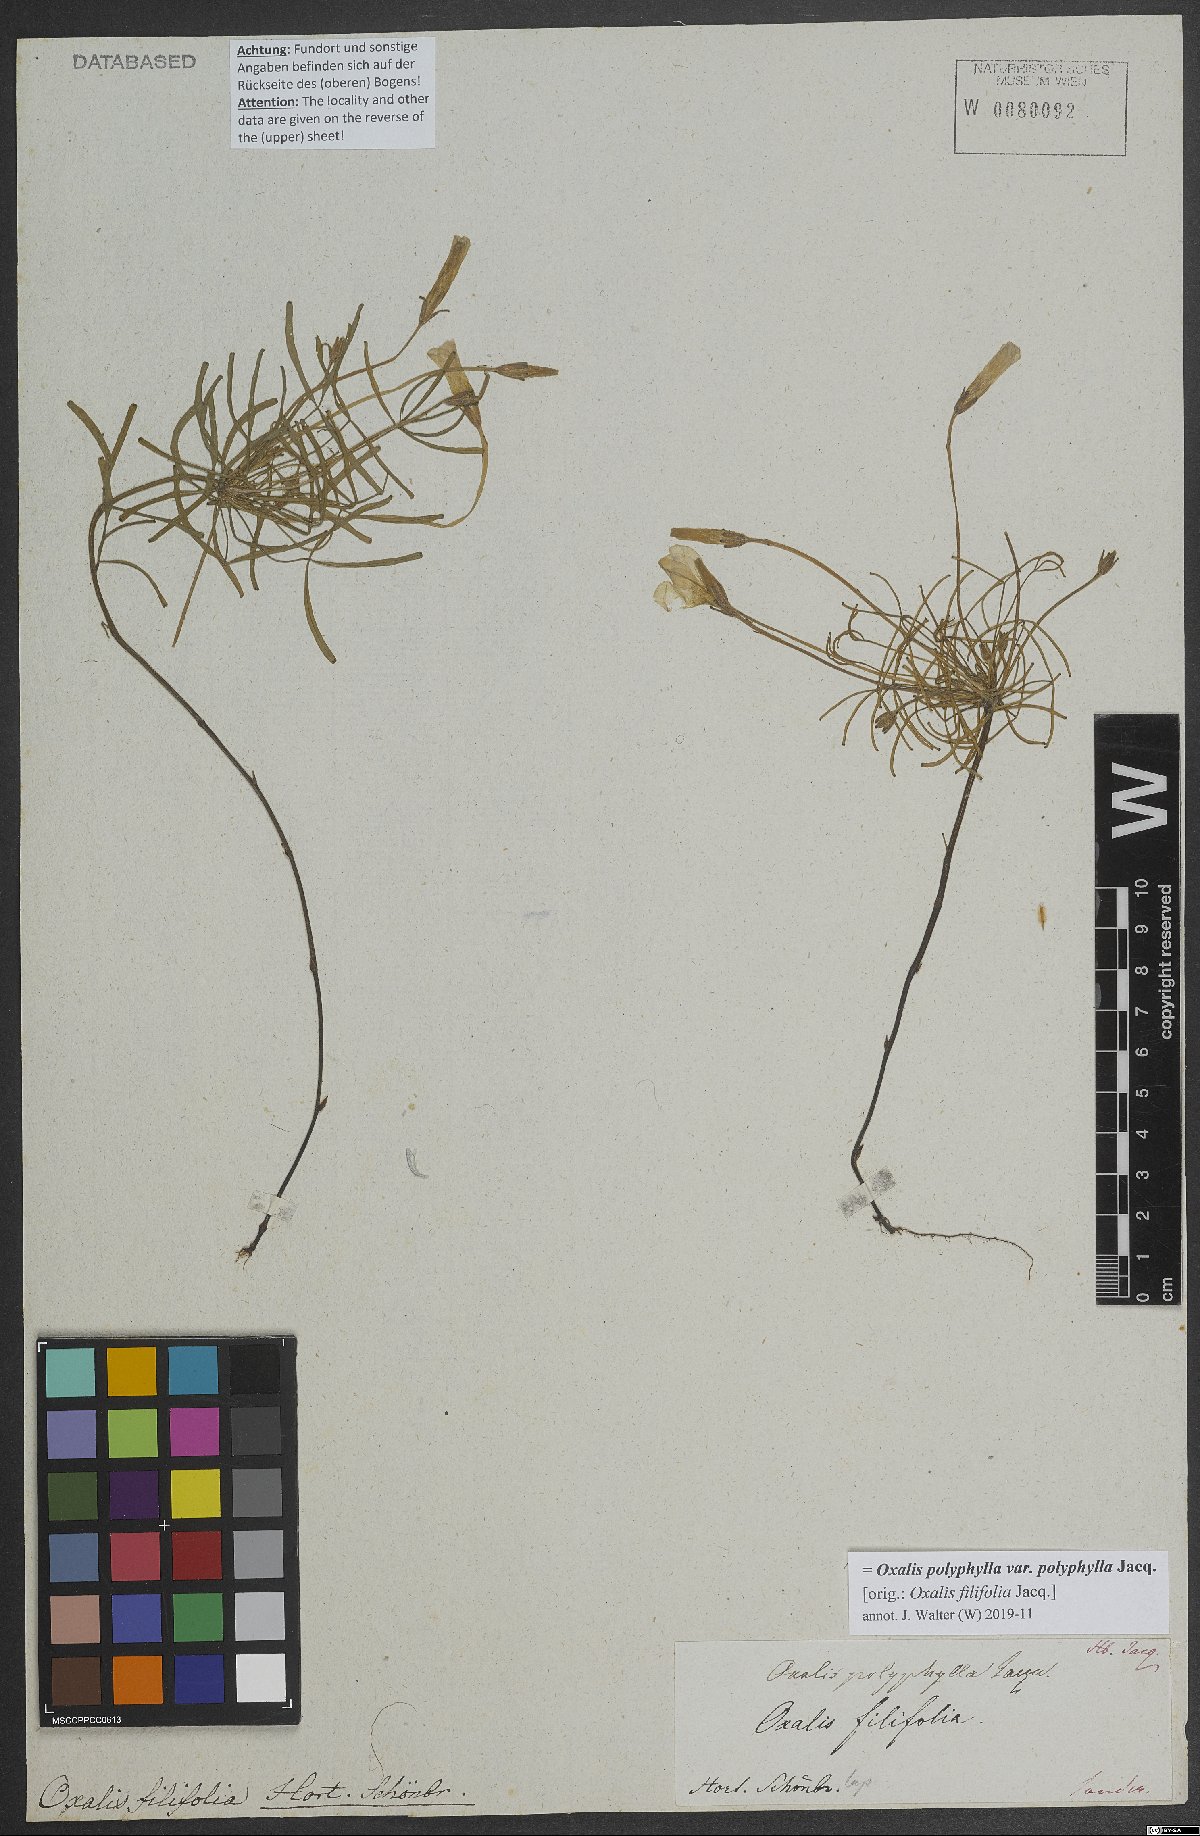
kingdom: Plantae
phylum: Tracheophyta
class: Magnoliopsida
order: Oxalidales
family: Oxalidaceae
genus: Oxalis
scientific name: Oxalis polyphylla
